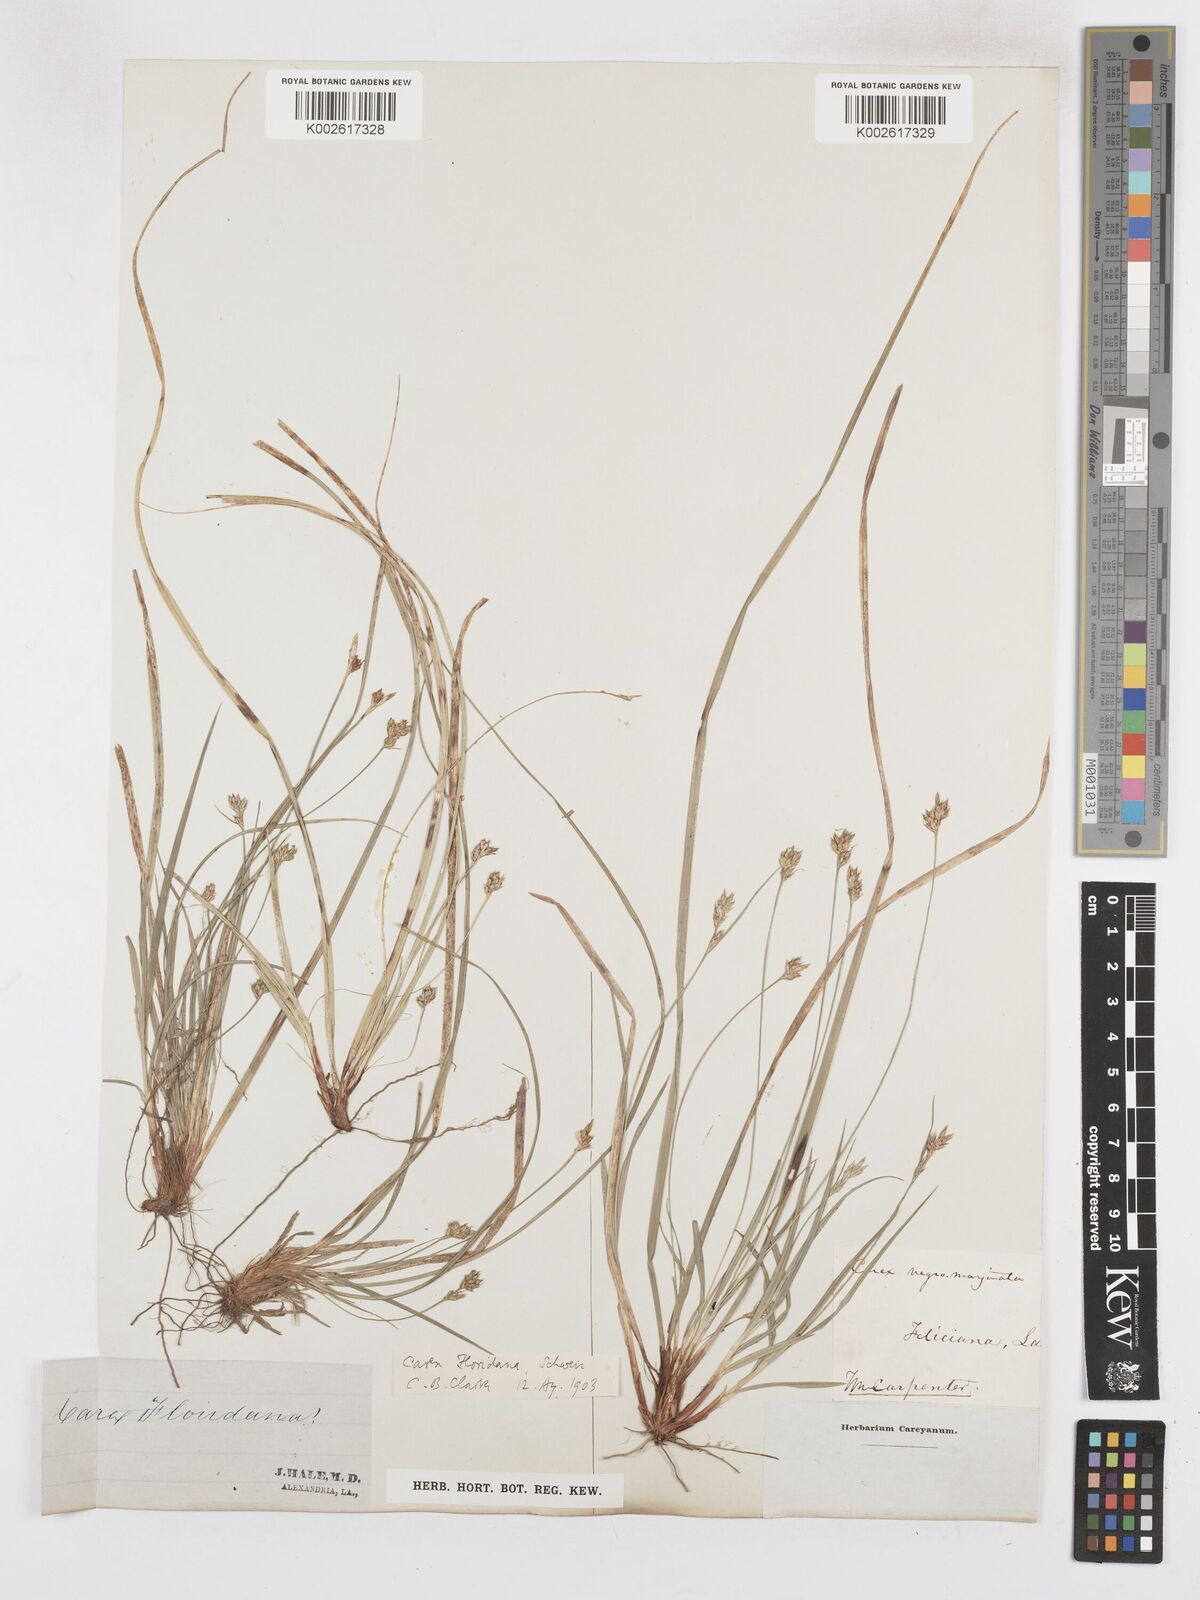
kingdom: Plantae
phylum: Tracheophyta
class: Liliopsida
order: Poales
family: Cyperaceae
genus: Carex
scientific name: Carex floridana
